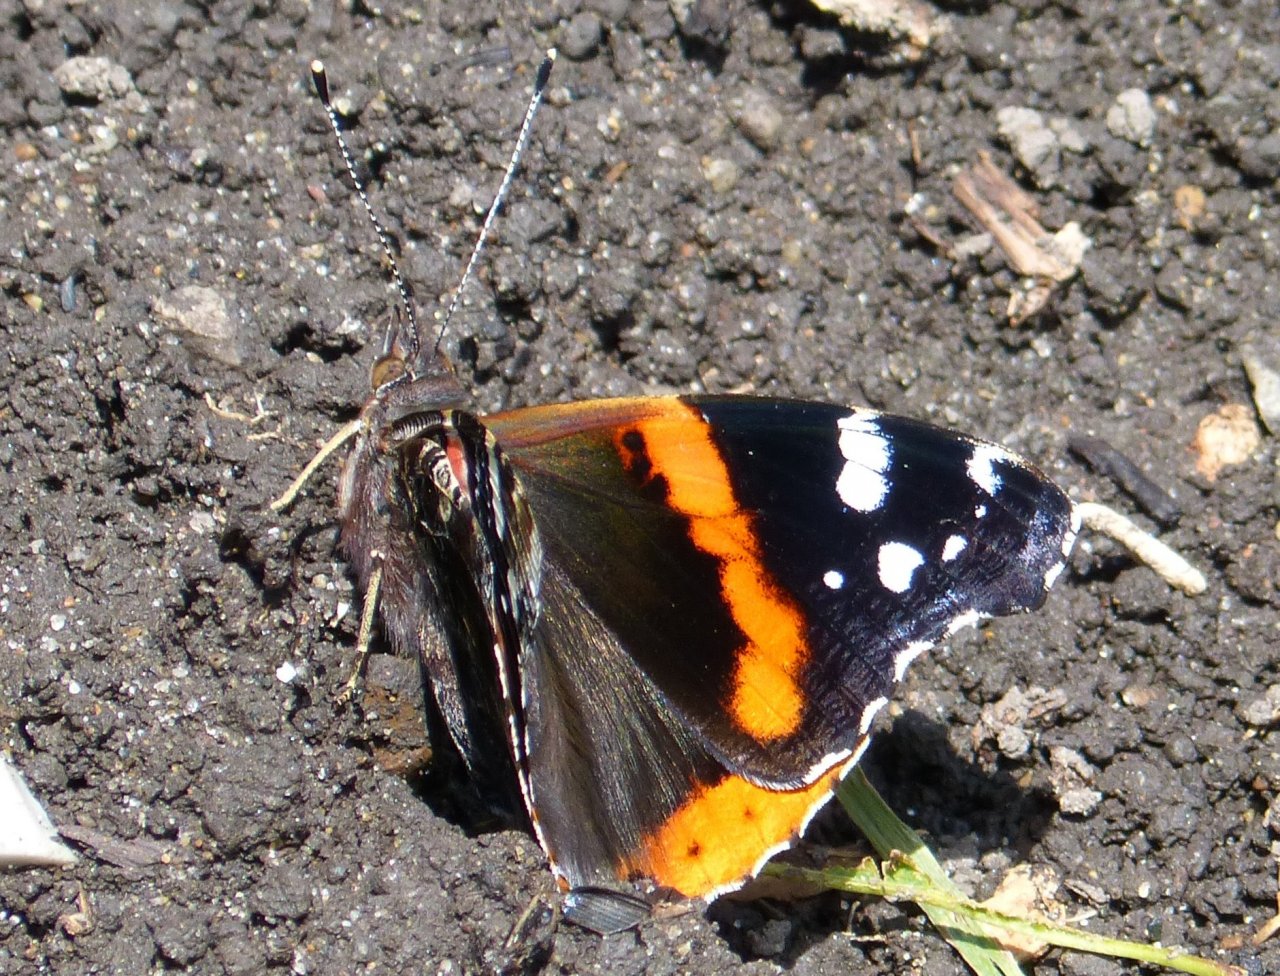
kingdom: Animalia
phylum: Arthropoda
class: Insecta
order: Lepidoptera
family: Nymphalidae
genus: Vanessa
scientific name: Vanessa atalanta
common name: Red Admiral
